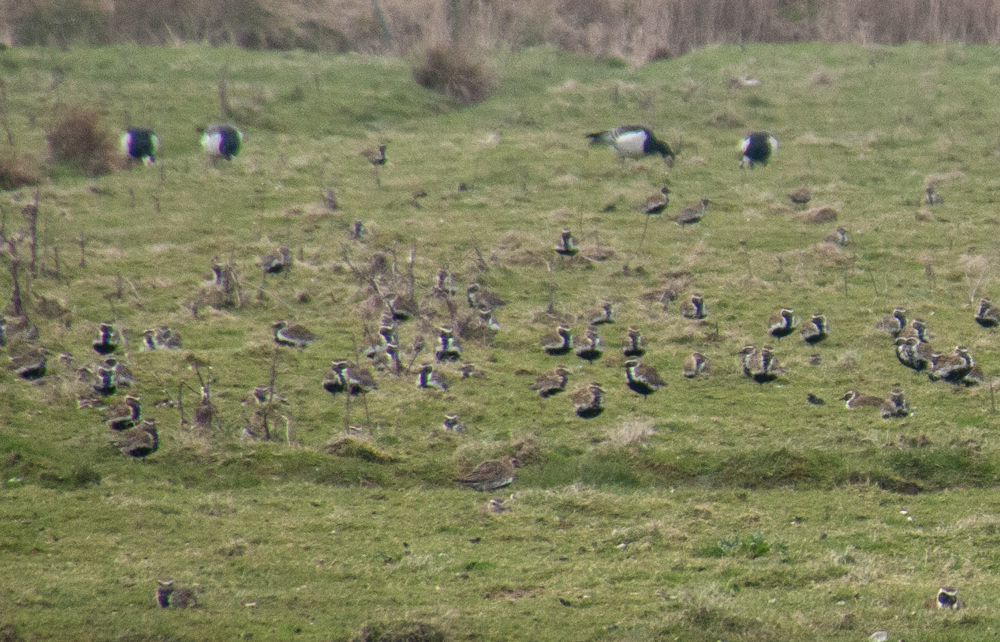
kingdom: Animalia
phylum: Chordata
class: Aves
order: Charadriiformes
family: Charadriidae
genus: Pluvialis
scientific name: Pluvialis apricaria
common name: European golden plover
